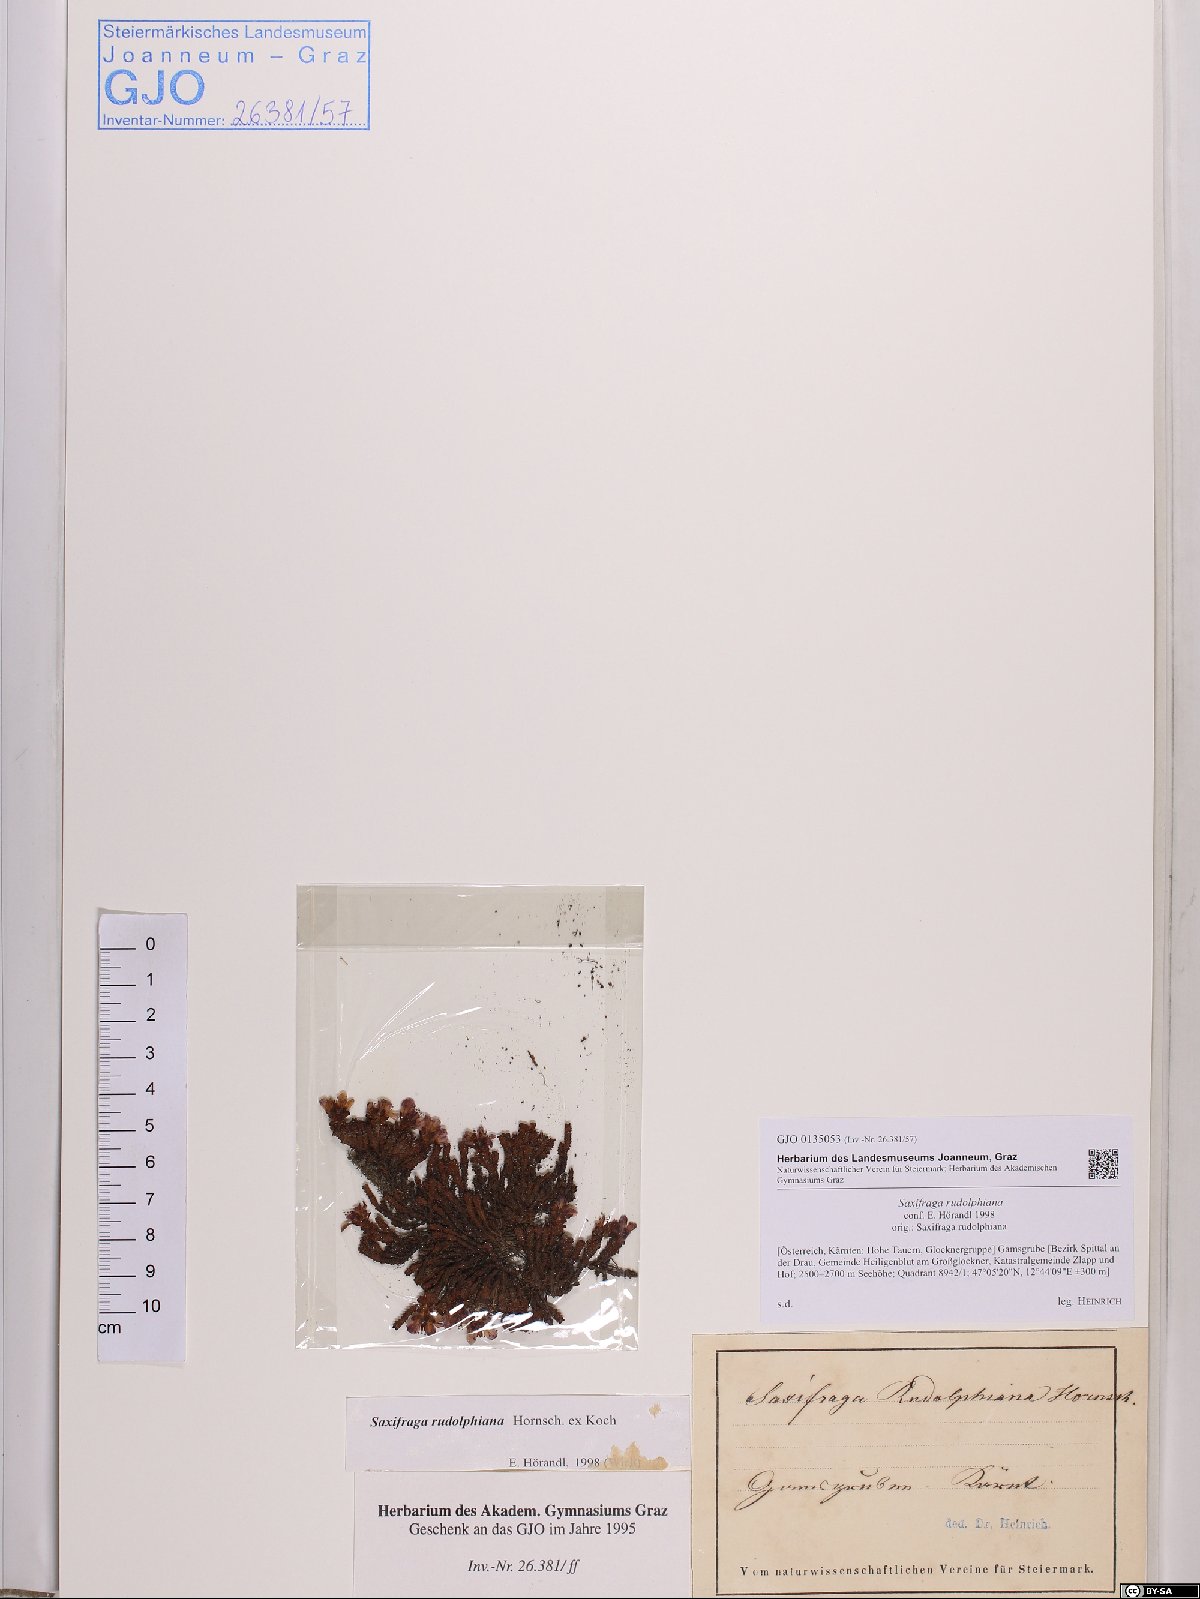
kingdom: Plantae
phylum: Tracheophyta
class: Magnoliopsida
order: Saxifragales
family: Saxifragaceae
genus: Saxifraga
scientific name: Saxifraga oppositifolia
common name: Purple saxifrage
